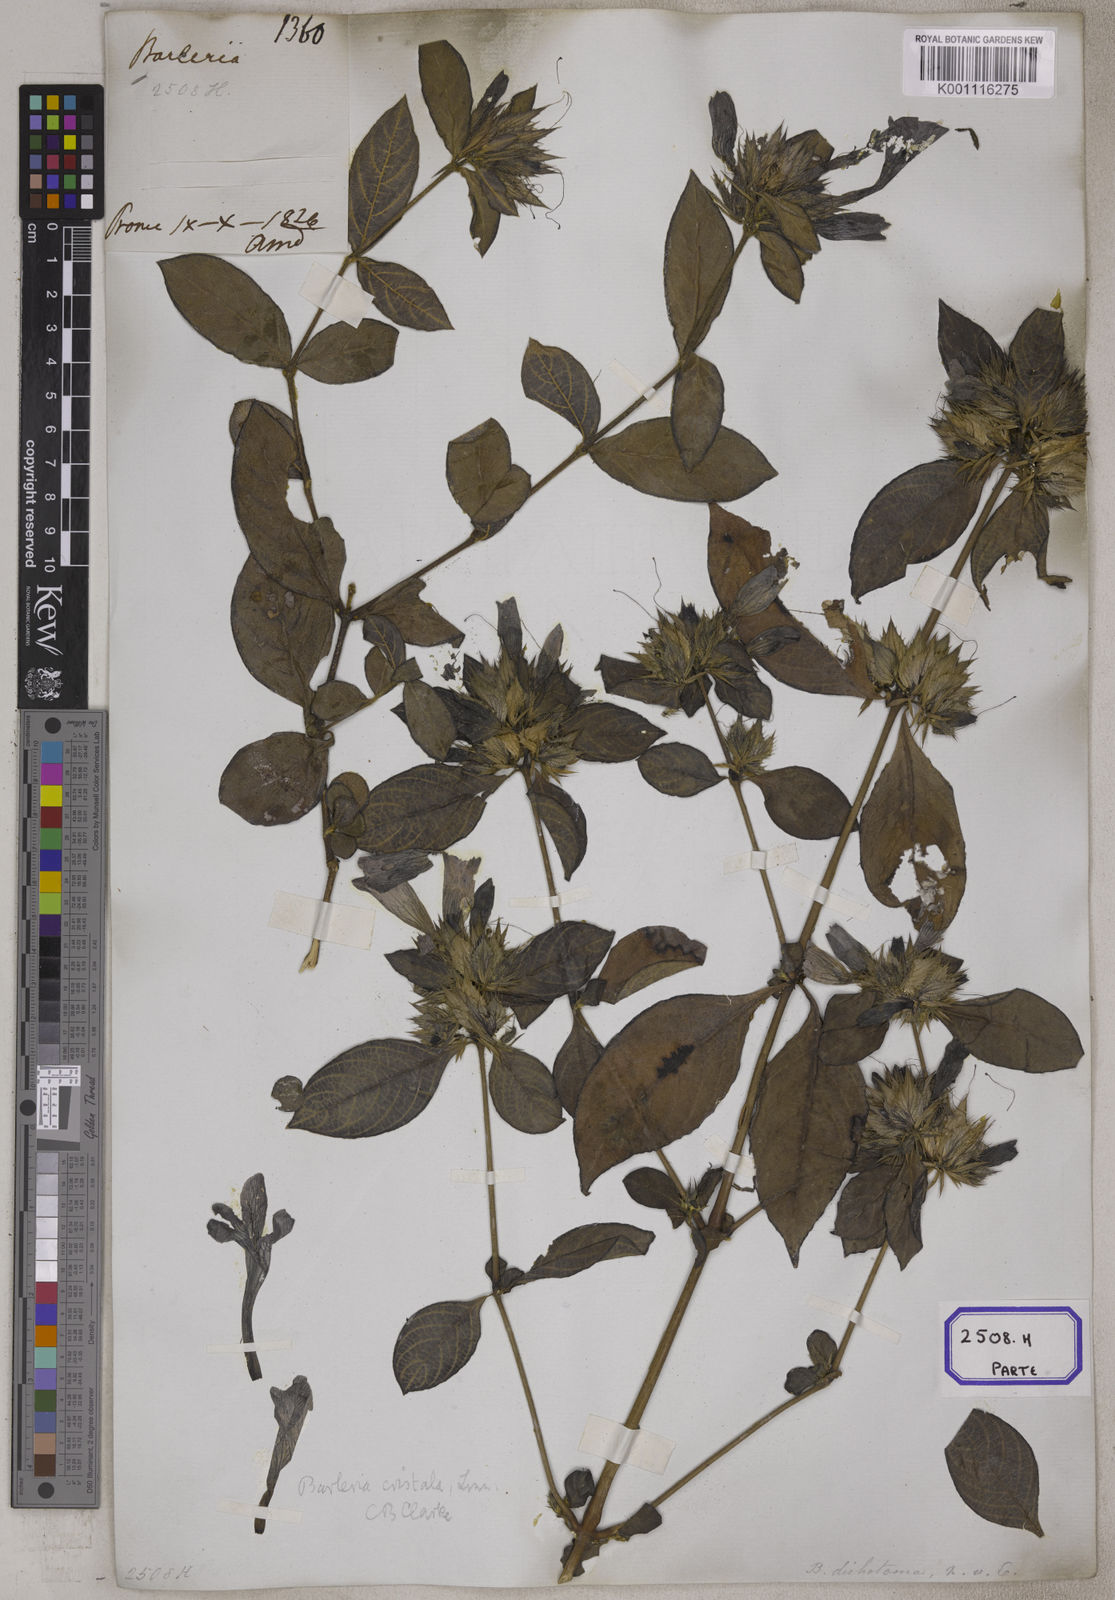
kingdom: Plantae
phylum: Tracheophyta
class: Magnoliopsida
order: Lamiales
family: Acanthaceae
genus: Barleria
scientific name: Barleria cristata
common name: Crested philippine violet
